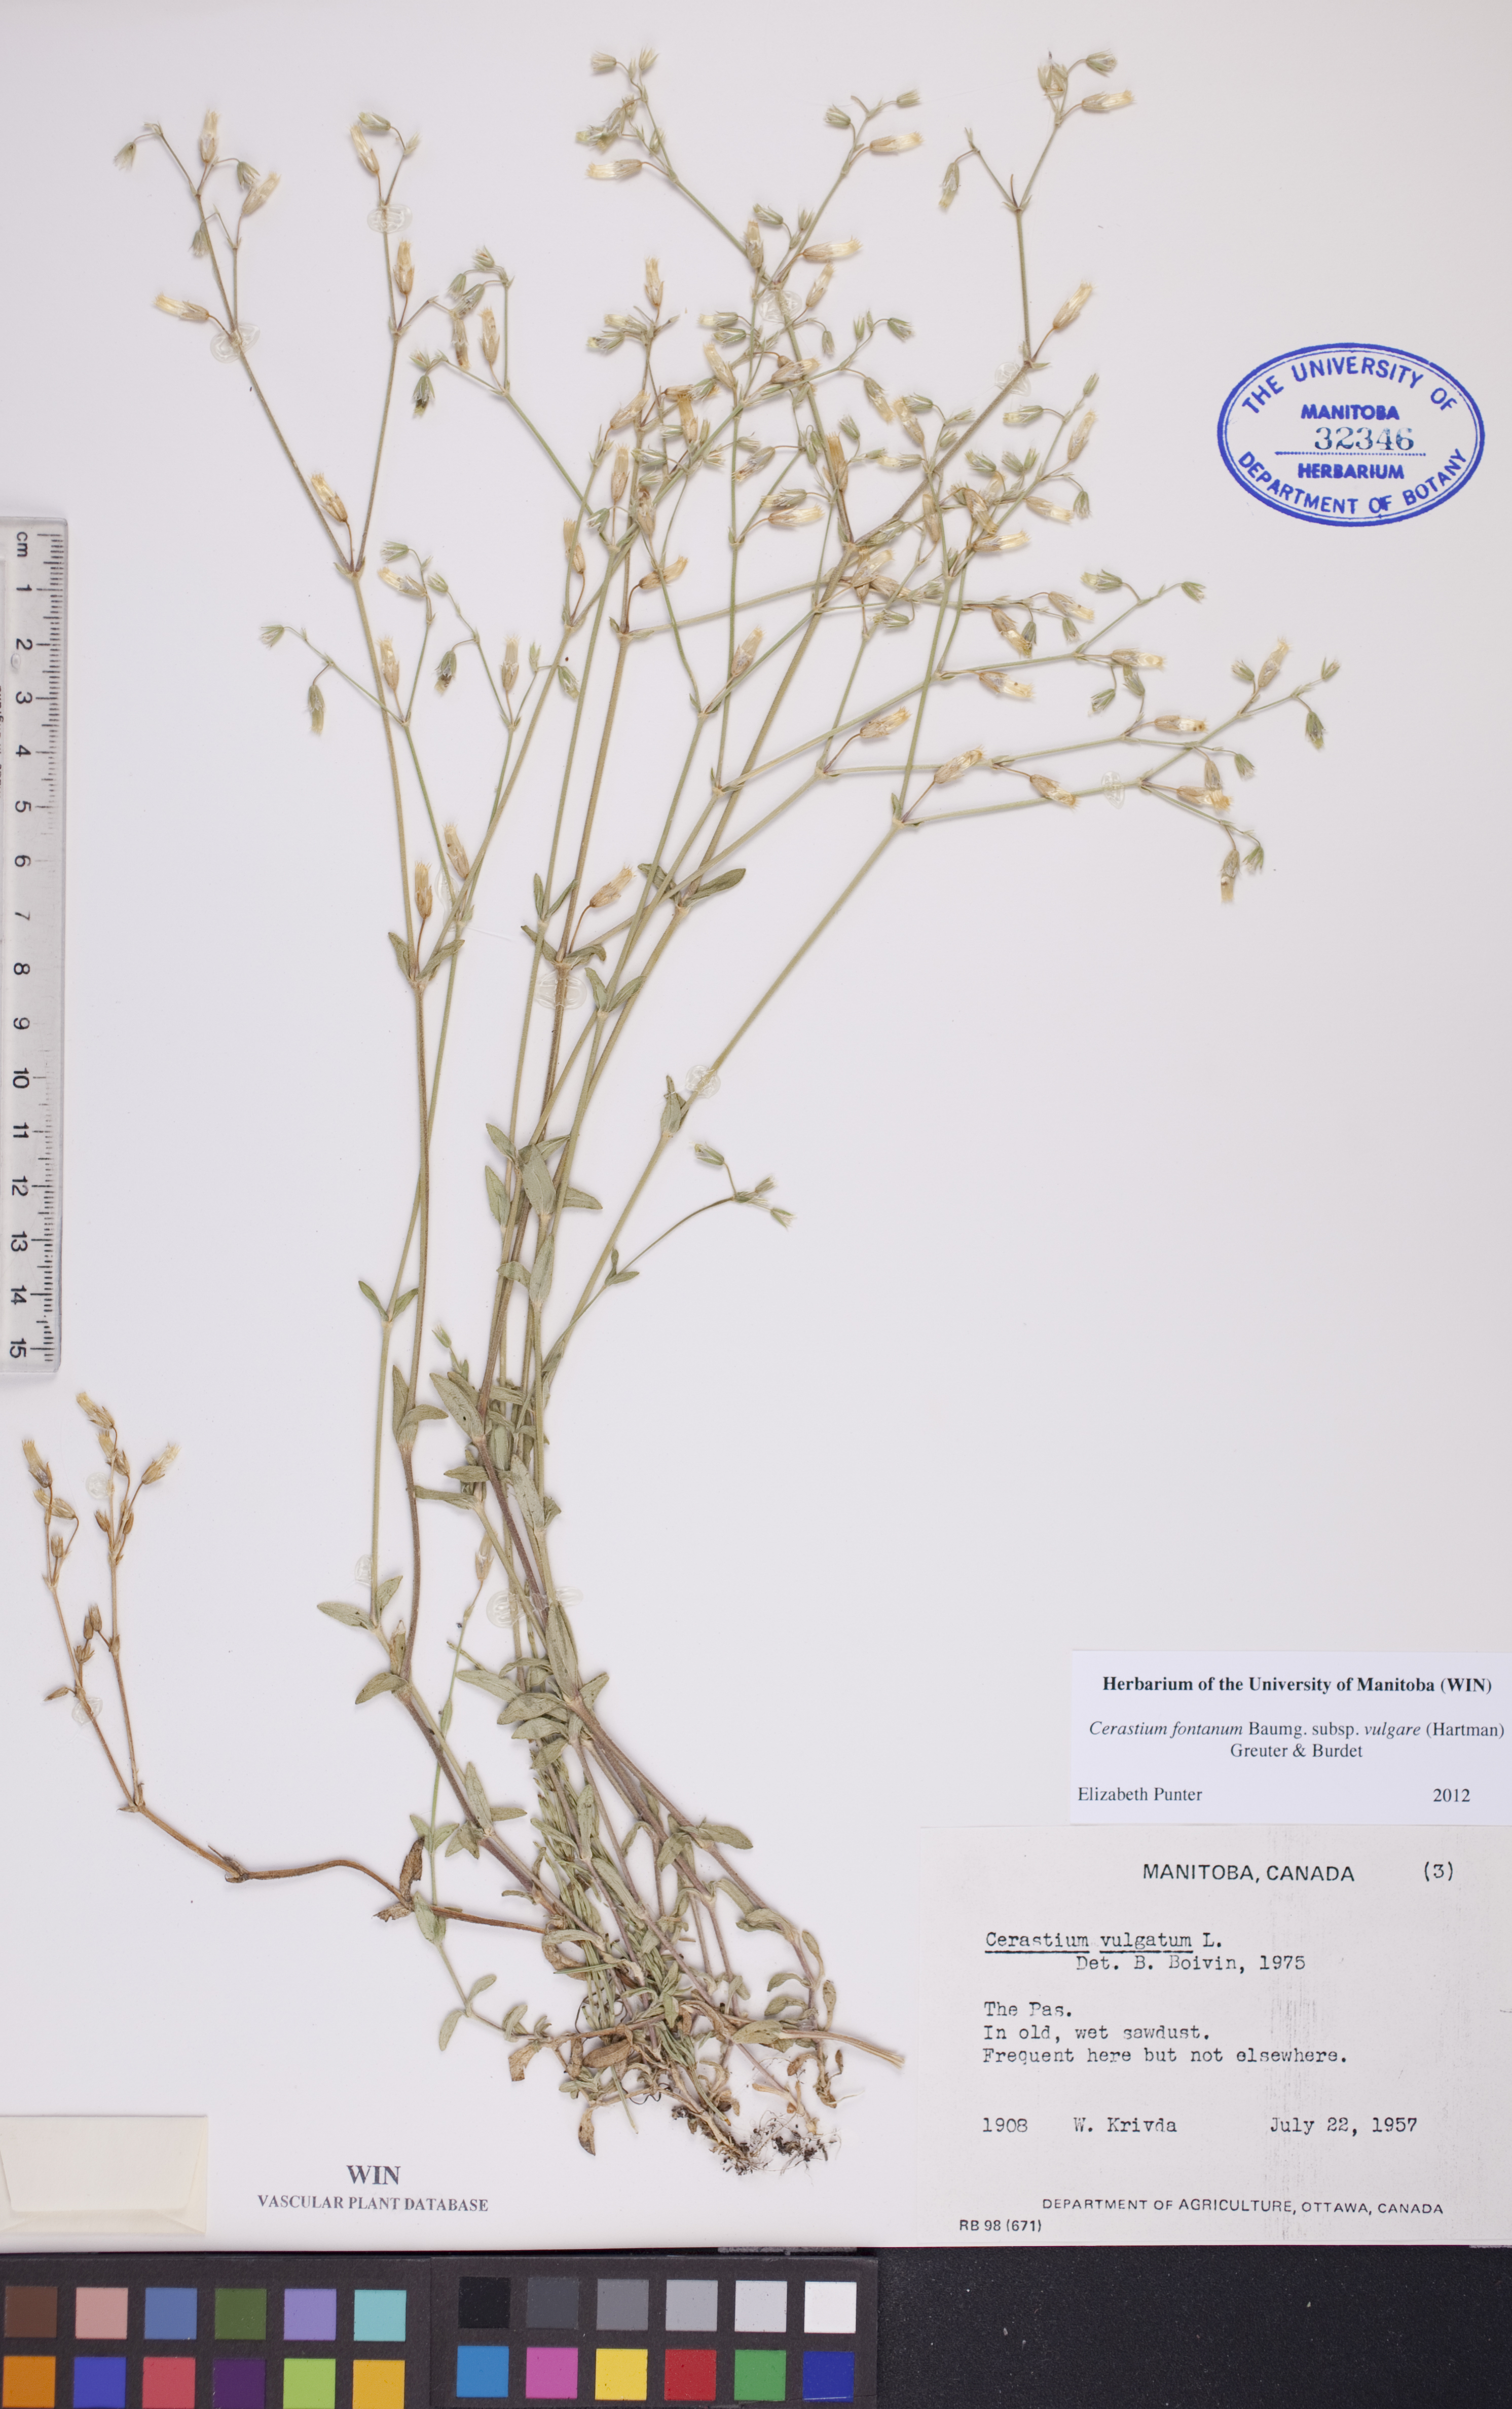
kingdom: Plantae
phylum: Tracheophyta
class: Magnoliopsida
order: Caryophyllales
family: Caryophyllaceae
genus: Cerastium
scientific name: Cerastium holosteoides
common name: Big chickweed
